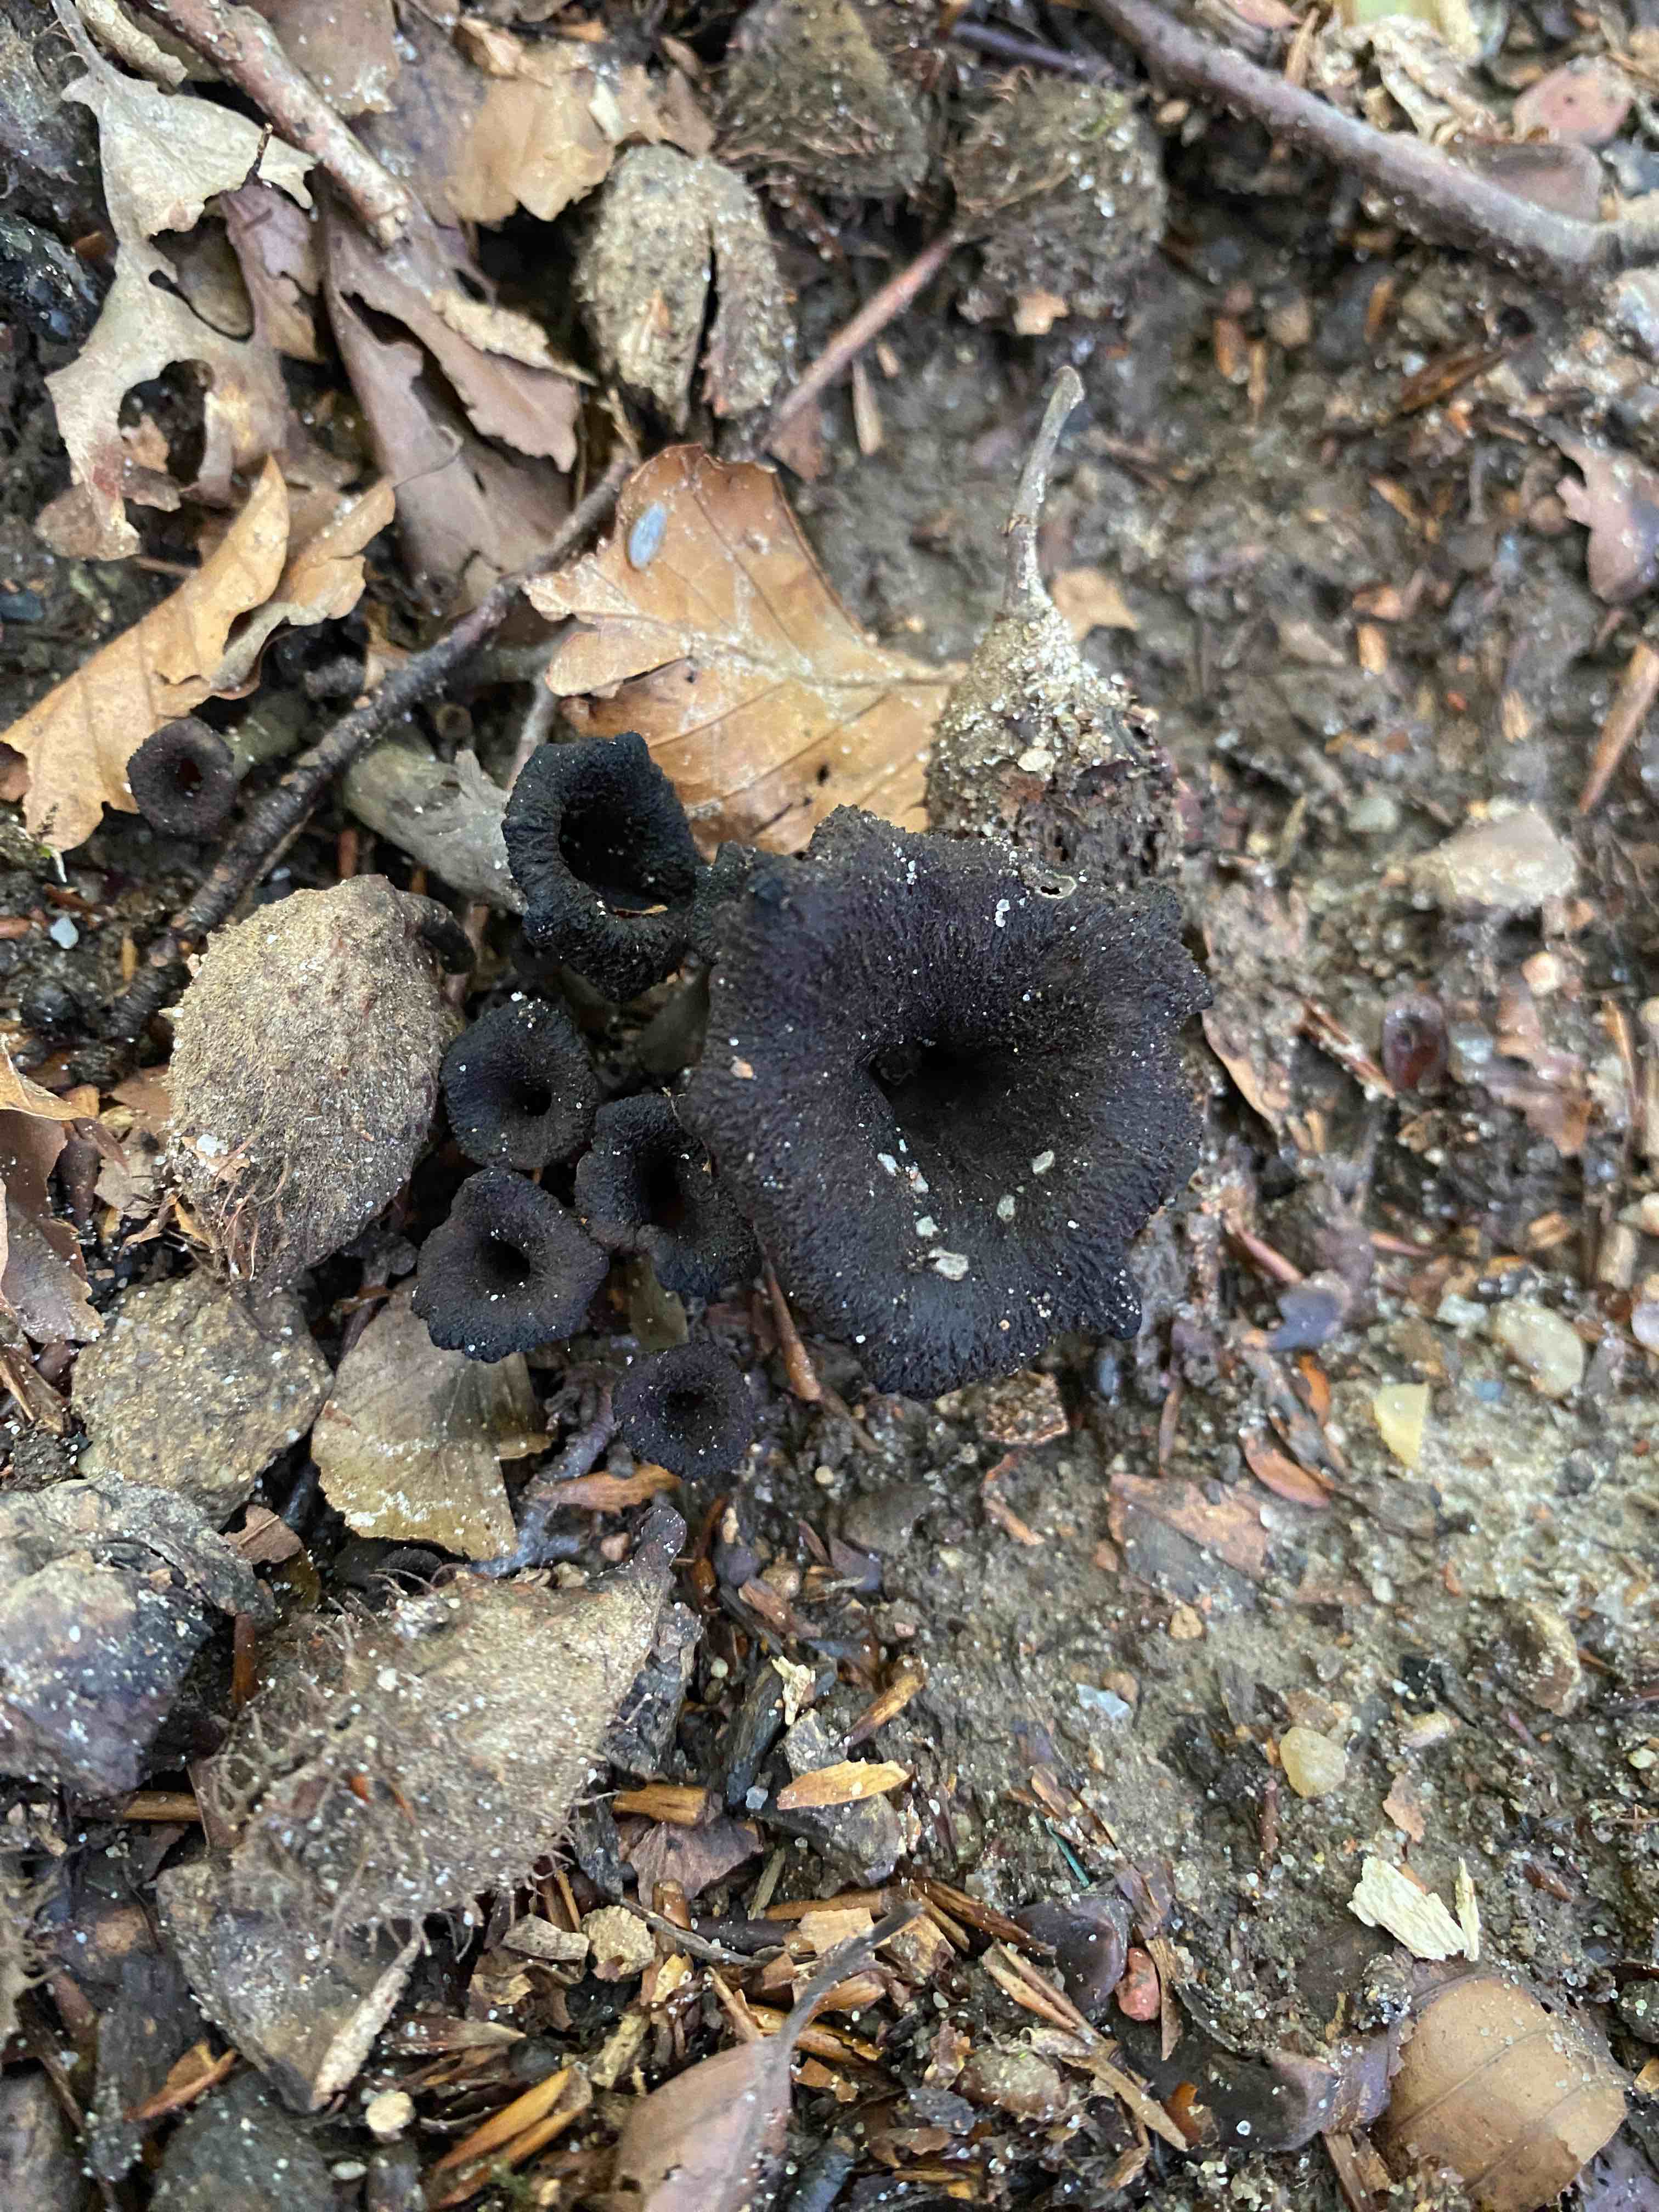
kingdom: Fungi
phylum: Basidiomycota
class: Agaricomycetes
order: Cantharellales
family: Hydnaceae
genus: Craterellus
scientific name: Craterellus cornucopioides
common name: trompetsvamp
